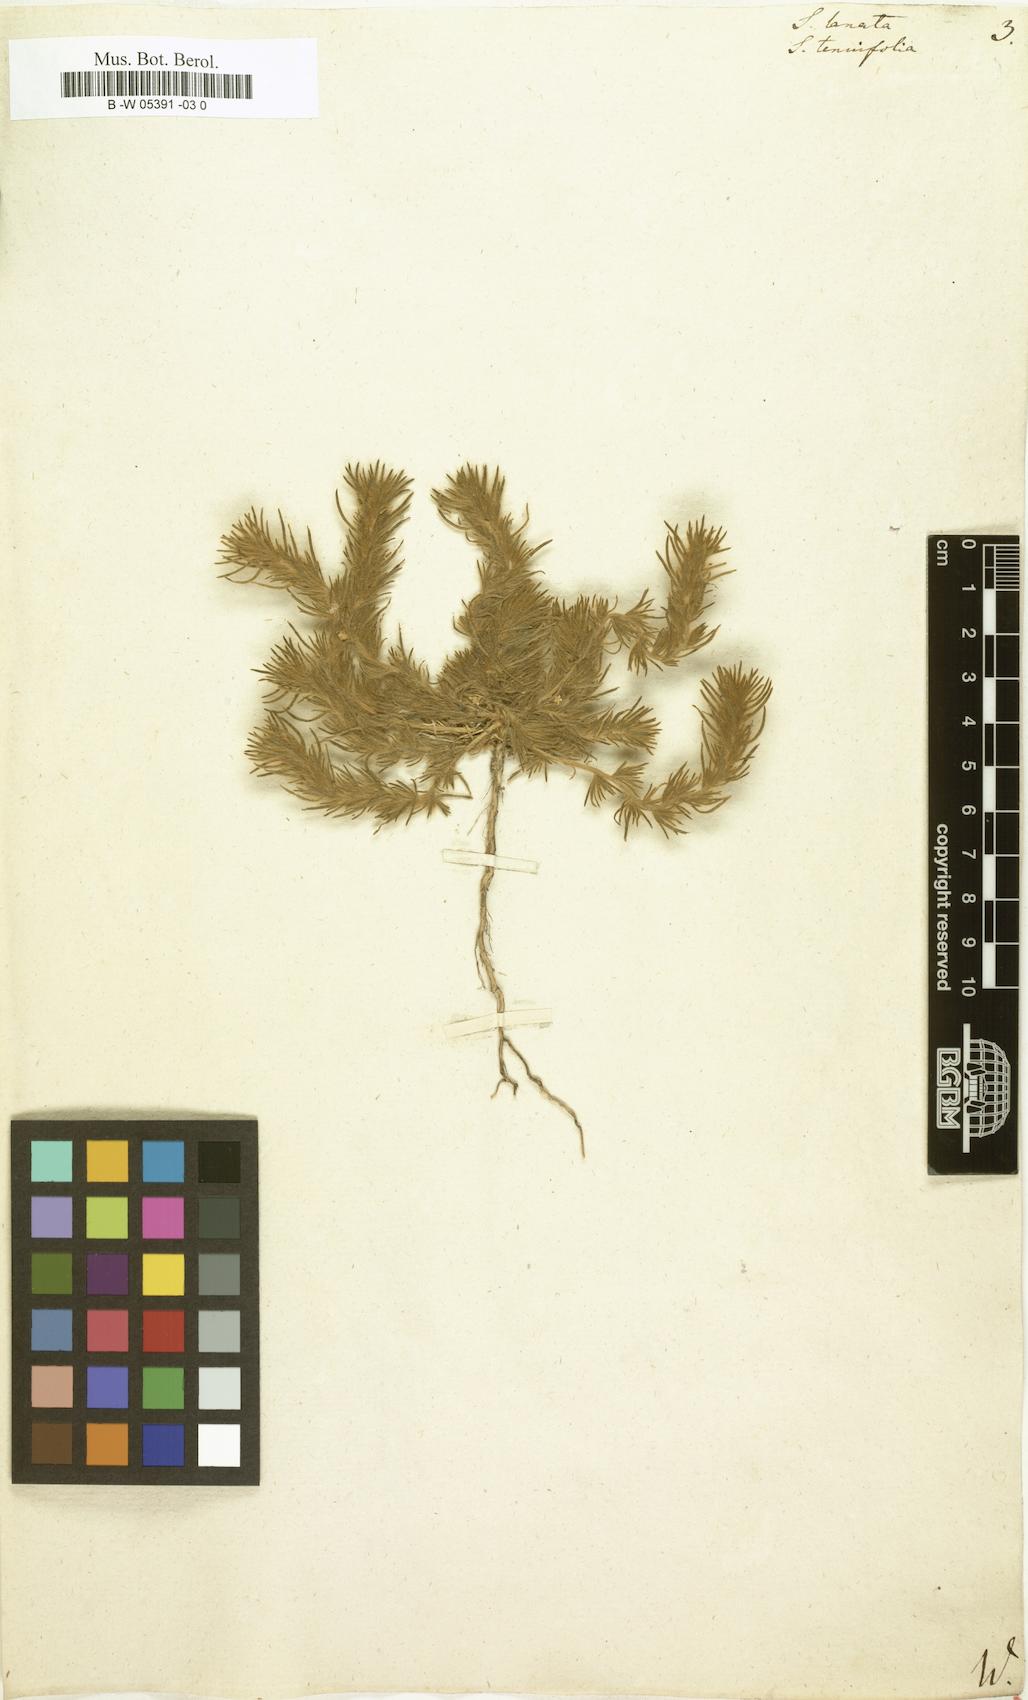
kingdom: Plantae
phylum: Tracheophyta
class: Magnoliopsida
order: Caryophyllales
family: Amaranthaceae
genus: Climacoptera
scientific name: Climacoptera lanata
